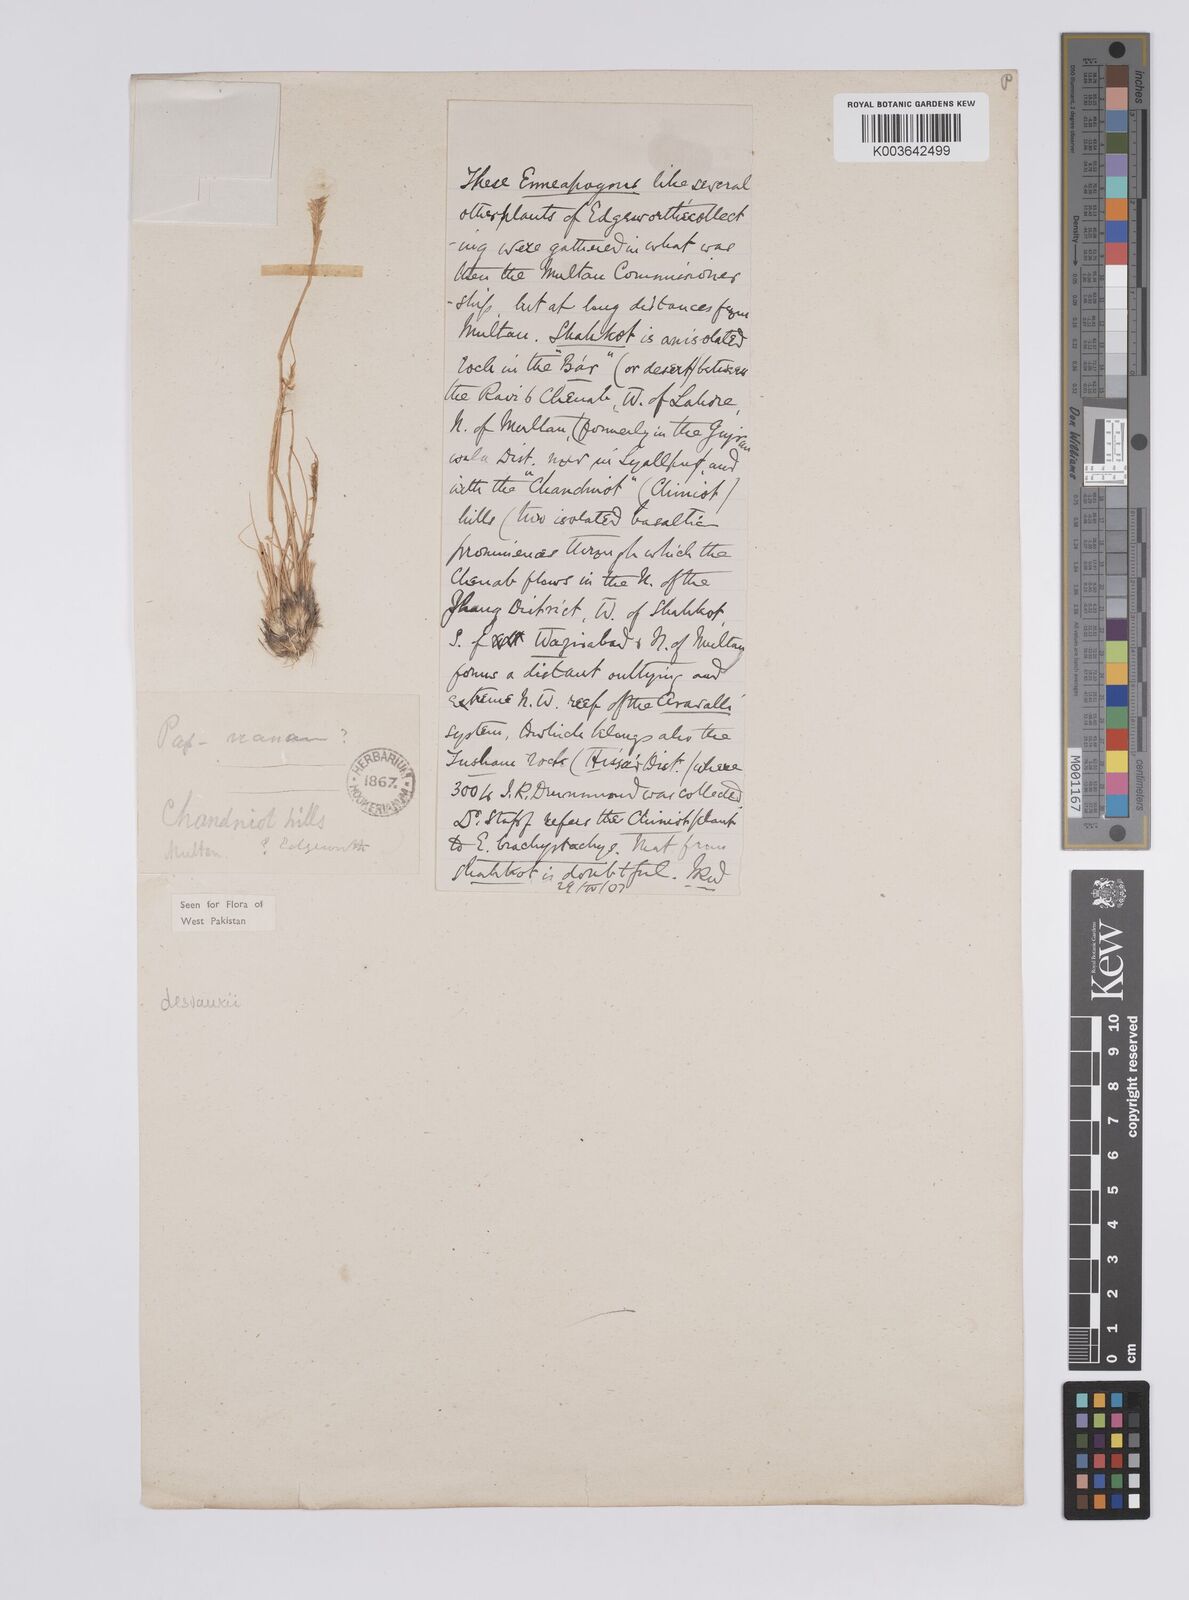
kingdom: Plantae
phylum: Tracheophyta
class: Liliopsida
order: Poales
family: Poaceae
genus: Enneapogon
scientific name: Enneapogon desvauxii
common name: Feather pappus grass
